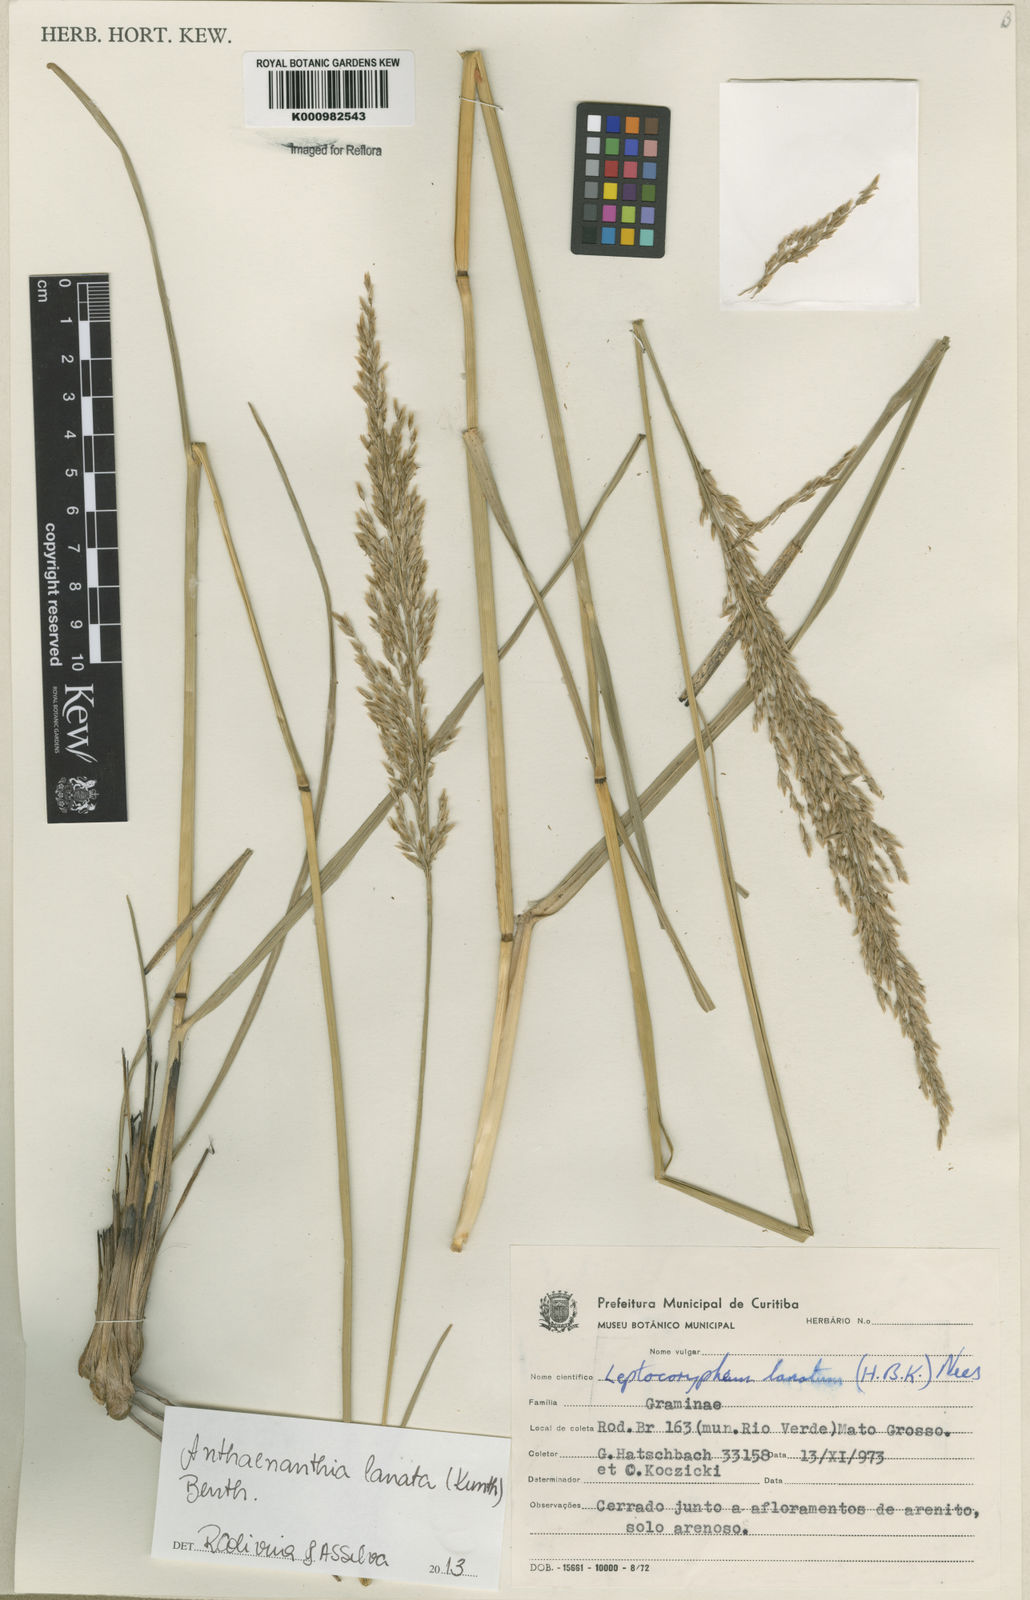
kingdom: Plantae
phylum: Tracheophyta
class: Liliopsida
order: Poales
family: Poaceae
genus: Anthenantia
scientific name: Anthenantia lanata
